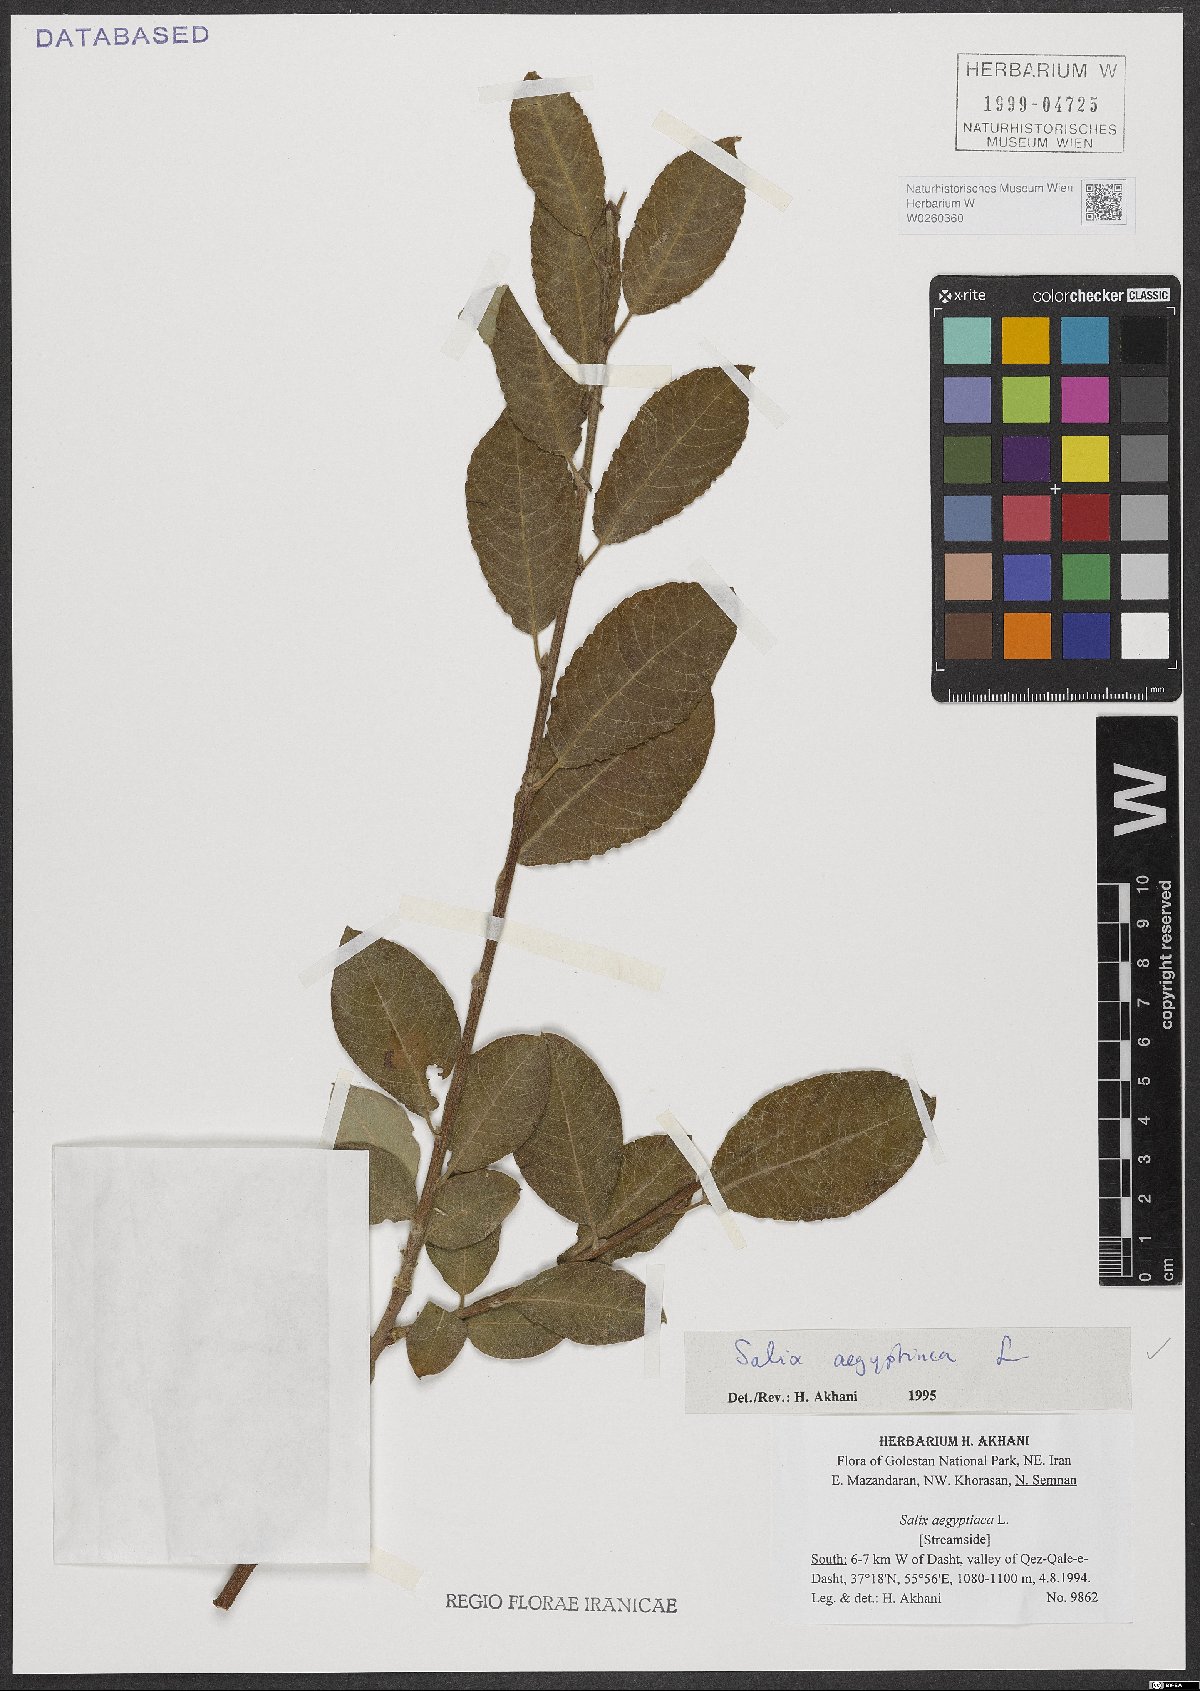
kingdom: Plantae
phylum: Tracheophyta
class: Magnoliopsida
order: Malpighiales
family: Salicaceae
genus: Salix
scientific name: Salix aegyptiaca
